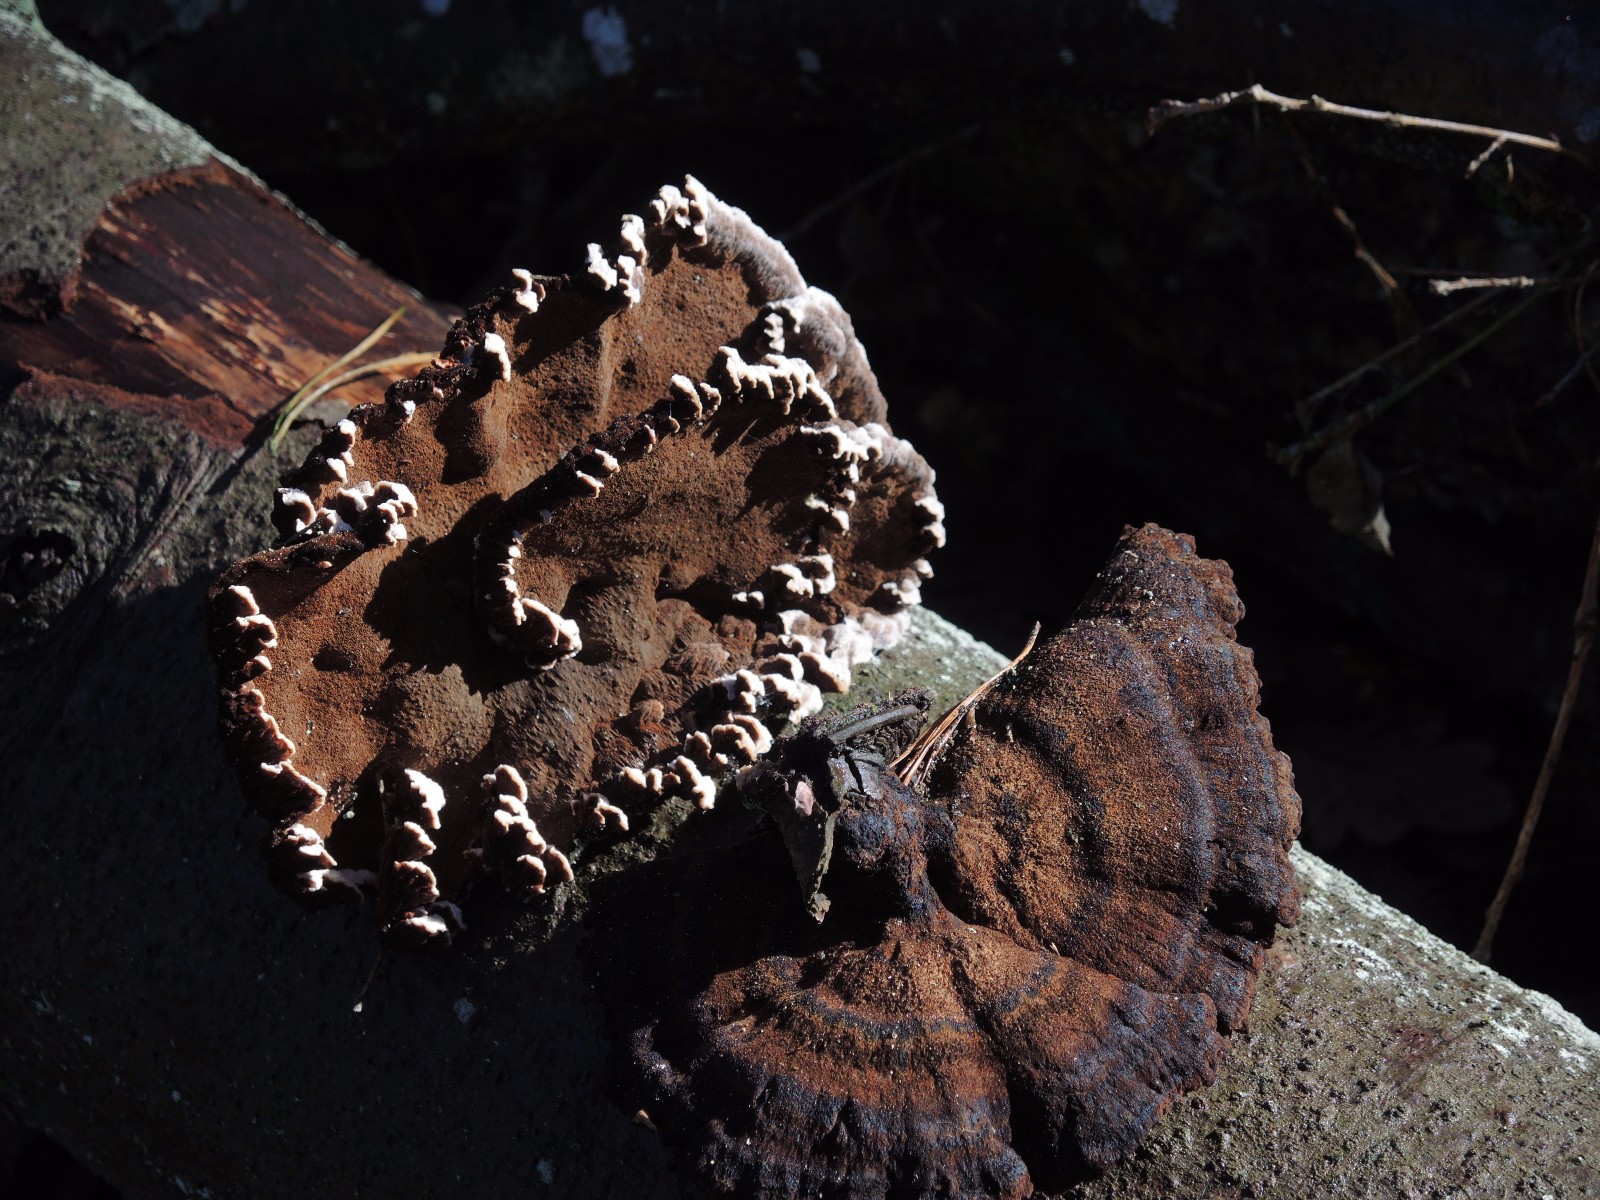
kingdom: Fungi
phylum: Basidiomycota
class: Agaricomycetes
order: Polyporales
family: Ischnodermataceae
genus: Ischnoderma
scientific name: Ischnoderma benzoinum
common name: gran-tjæreporesvamp
